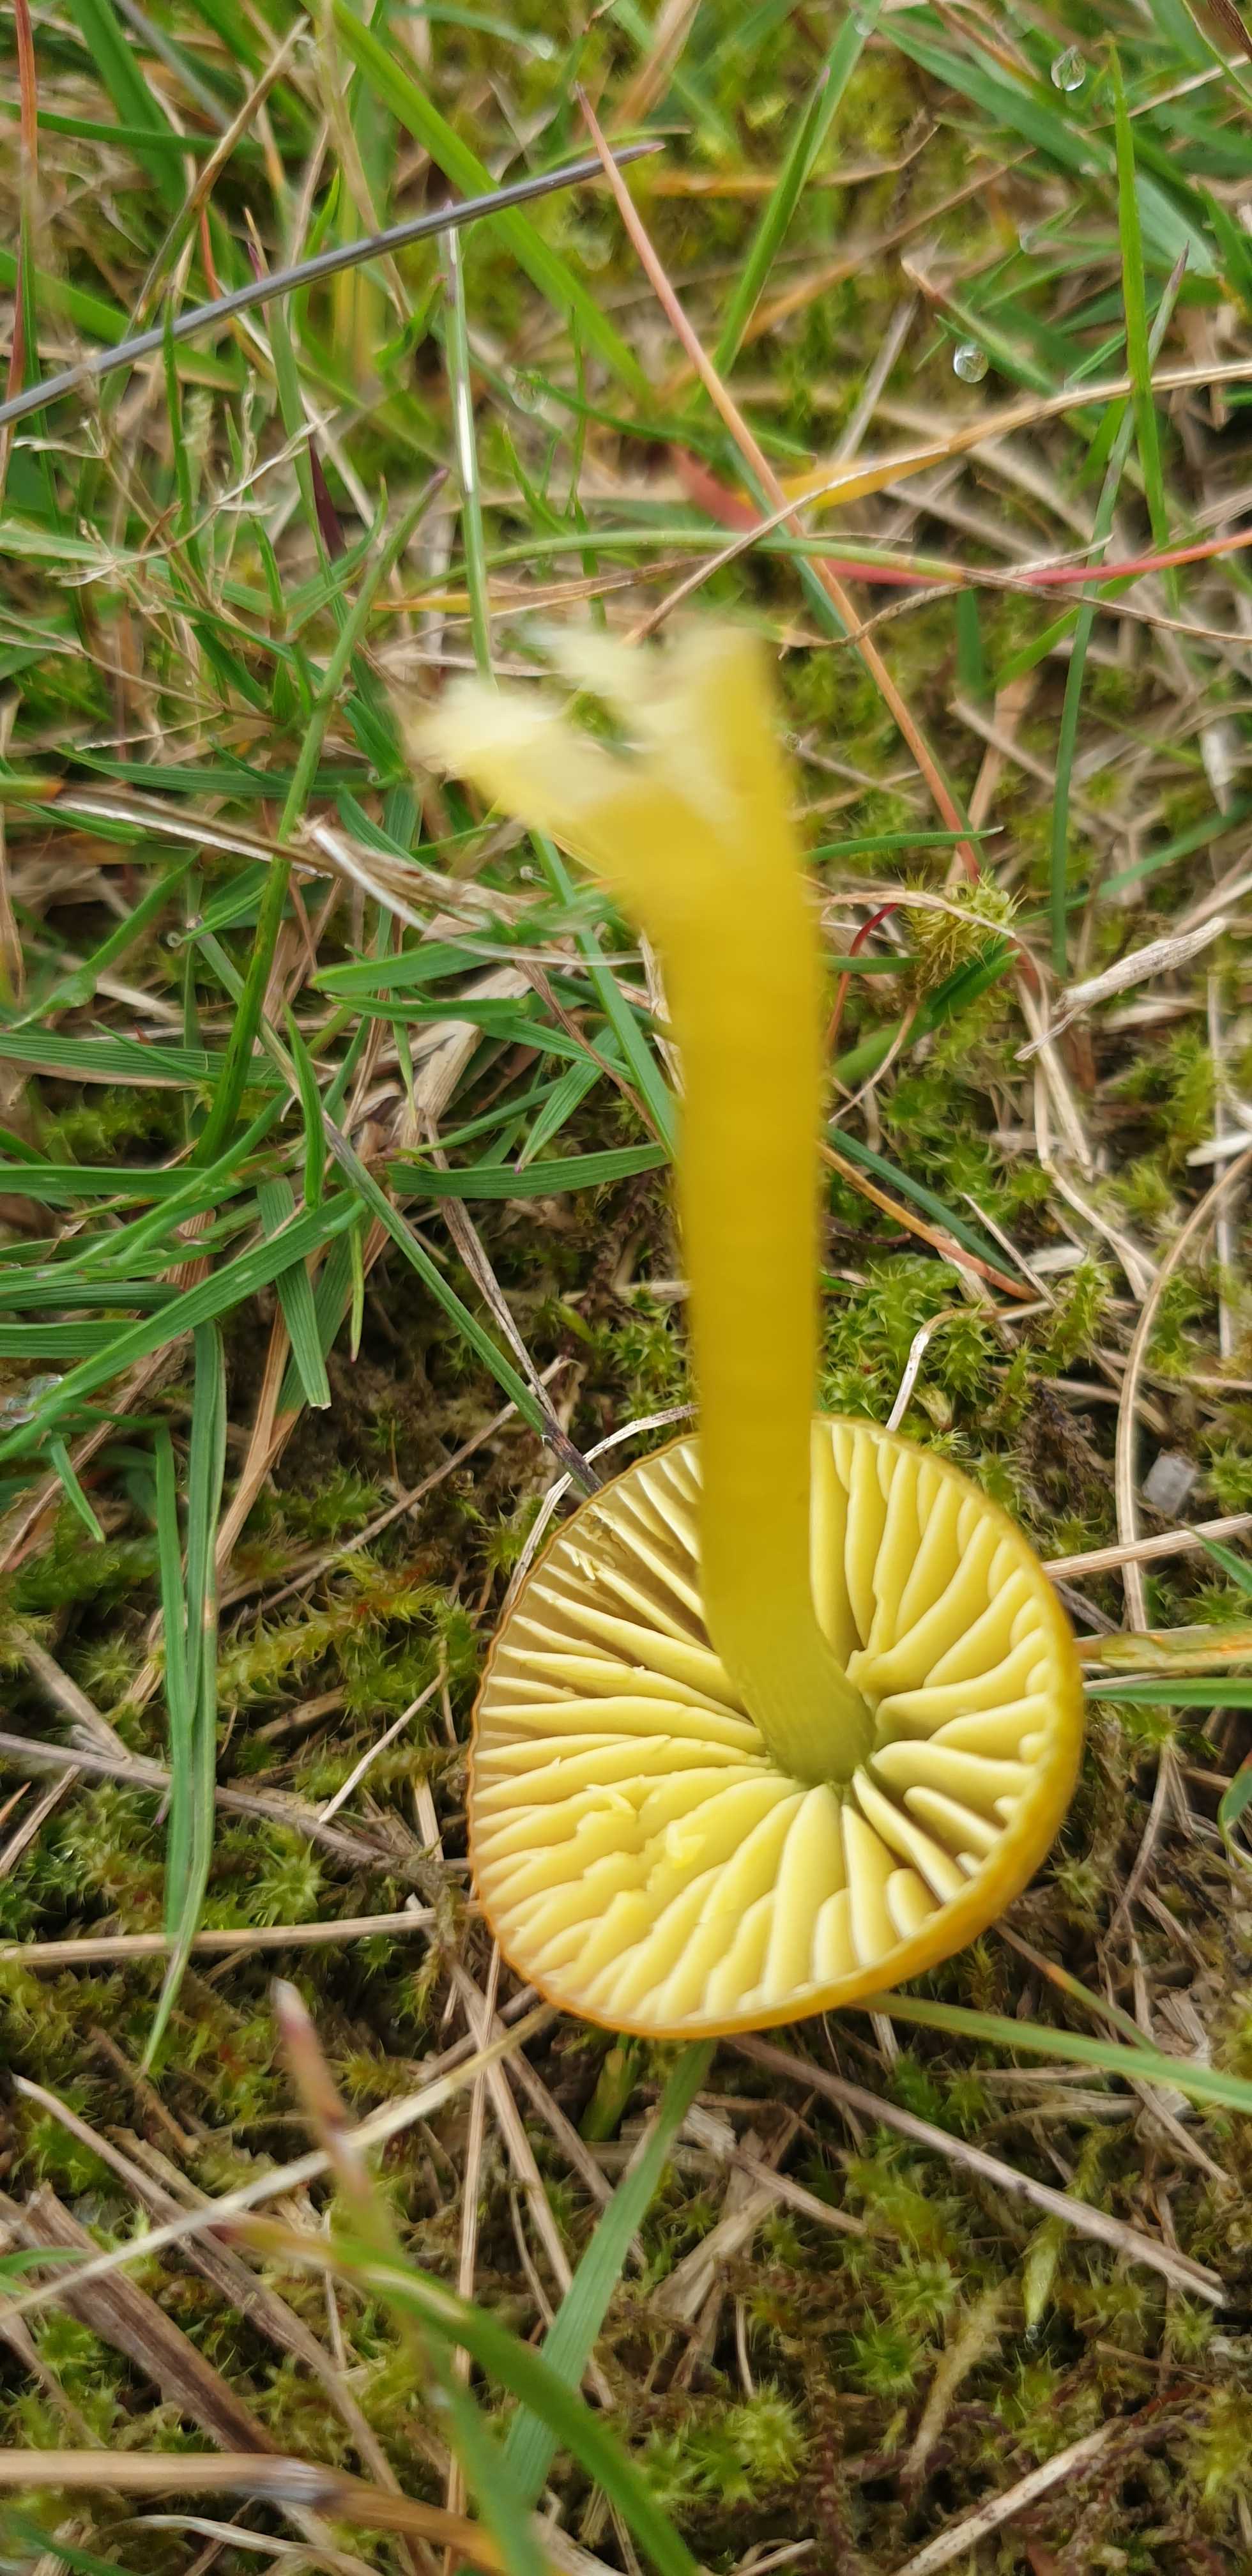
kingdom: Fungi
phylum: Basidiomycota
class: Agaricomycetes
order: Agaricales
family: Hygrophoraceae
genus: Gliophorus
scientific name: Gliophorus psittacinus
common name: papegøje-vokshat
